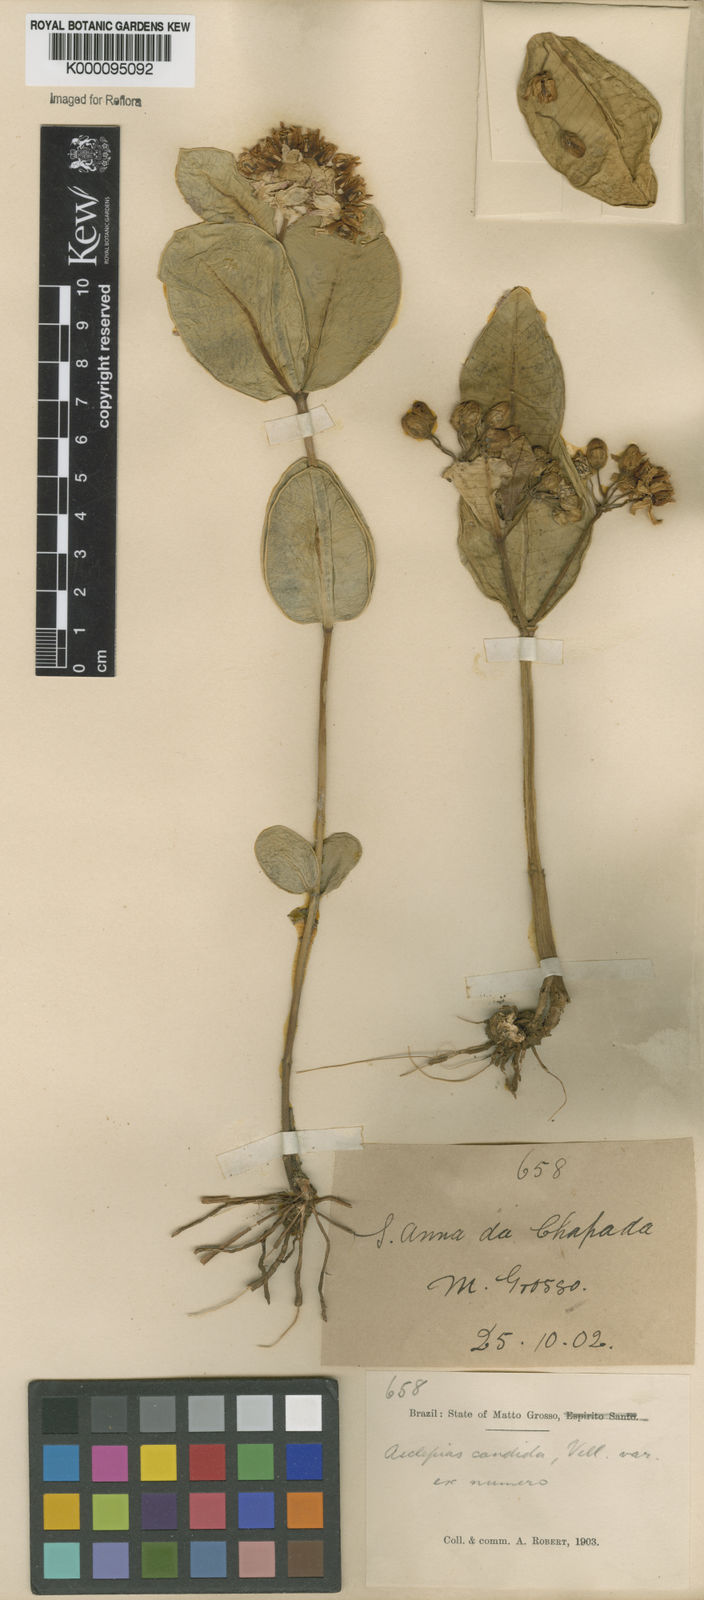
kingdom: Plantae
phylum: Tracheophyta
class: Magnoliopsida
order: Gentianales
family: Apocynaceae
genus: Asclepias
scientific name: Asclepias candida
